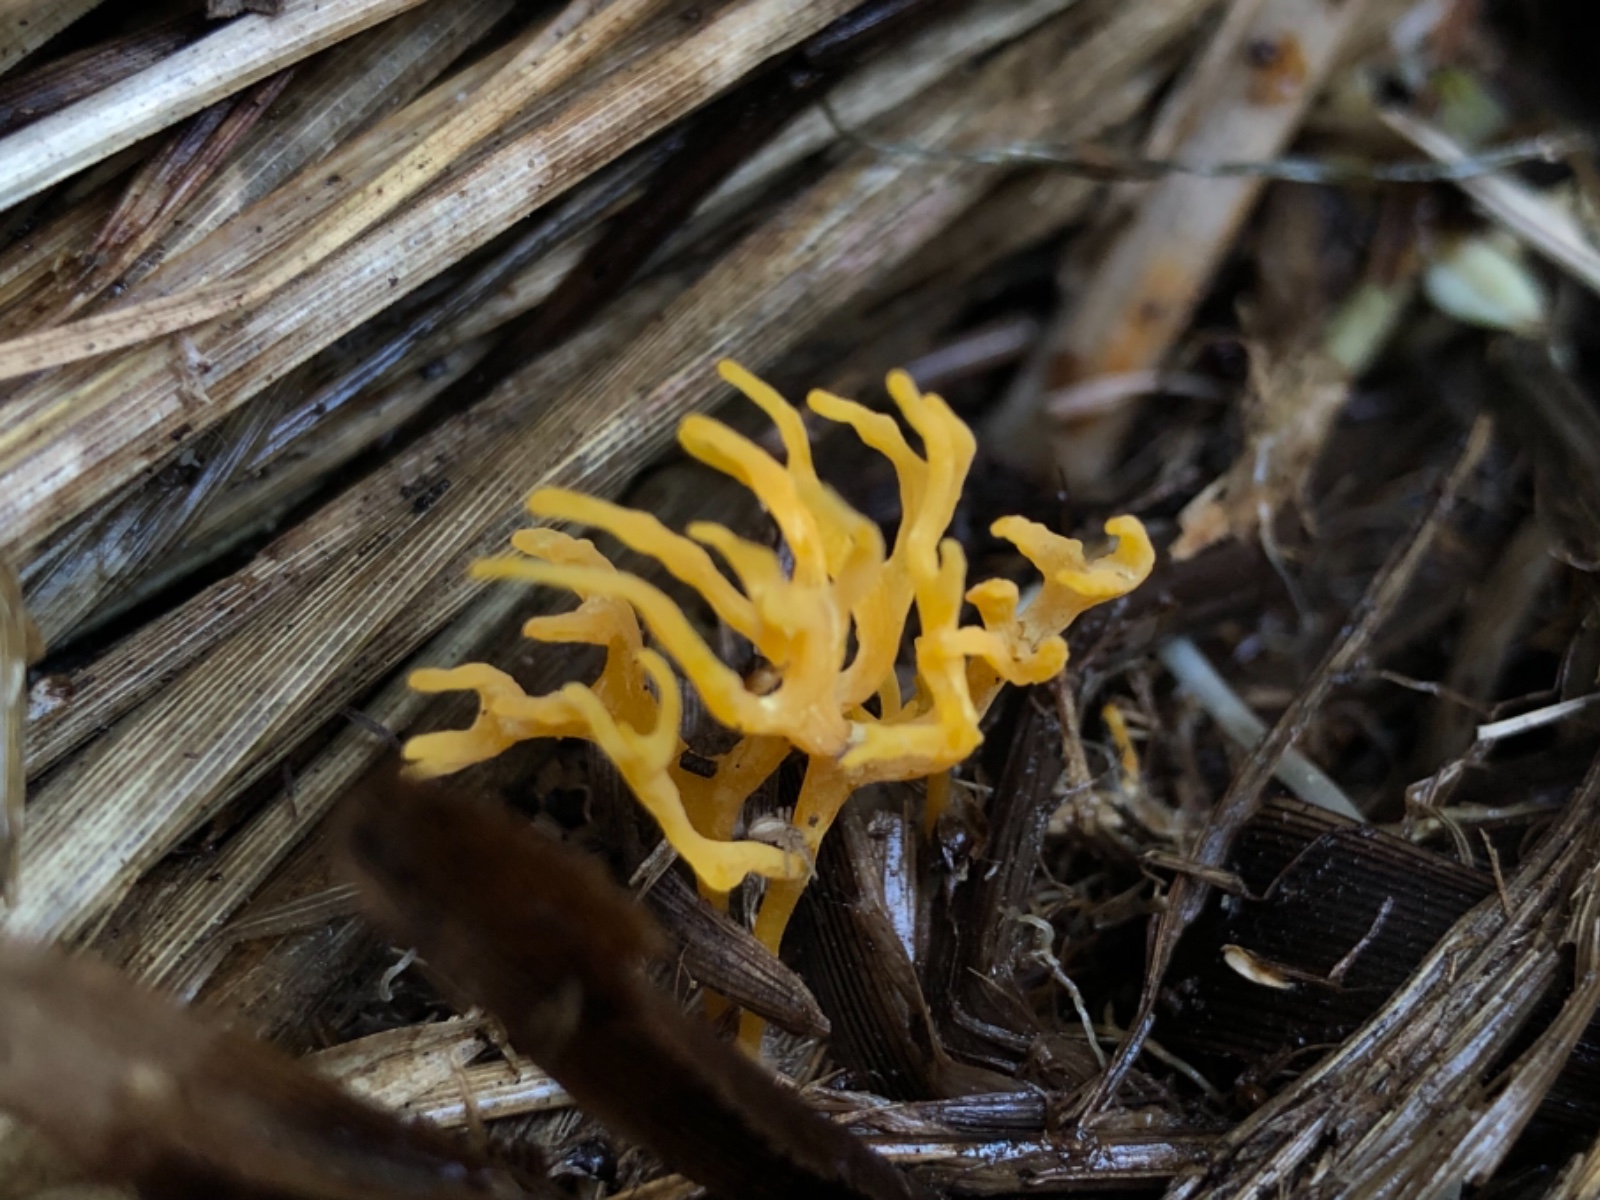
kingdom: Fungi
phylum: Basidiomycota
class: Agaricomycetes
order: Agaricales
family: Clavariaceae
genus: Ramariopsis
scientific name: Ramariopsis crocea
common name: gylden køllesvamp
